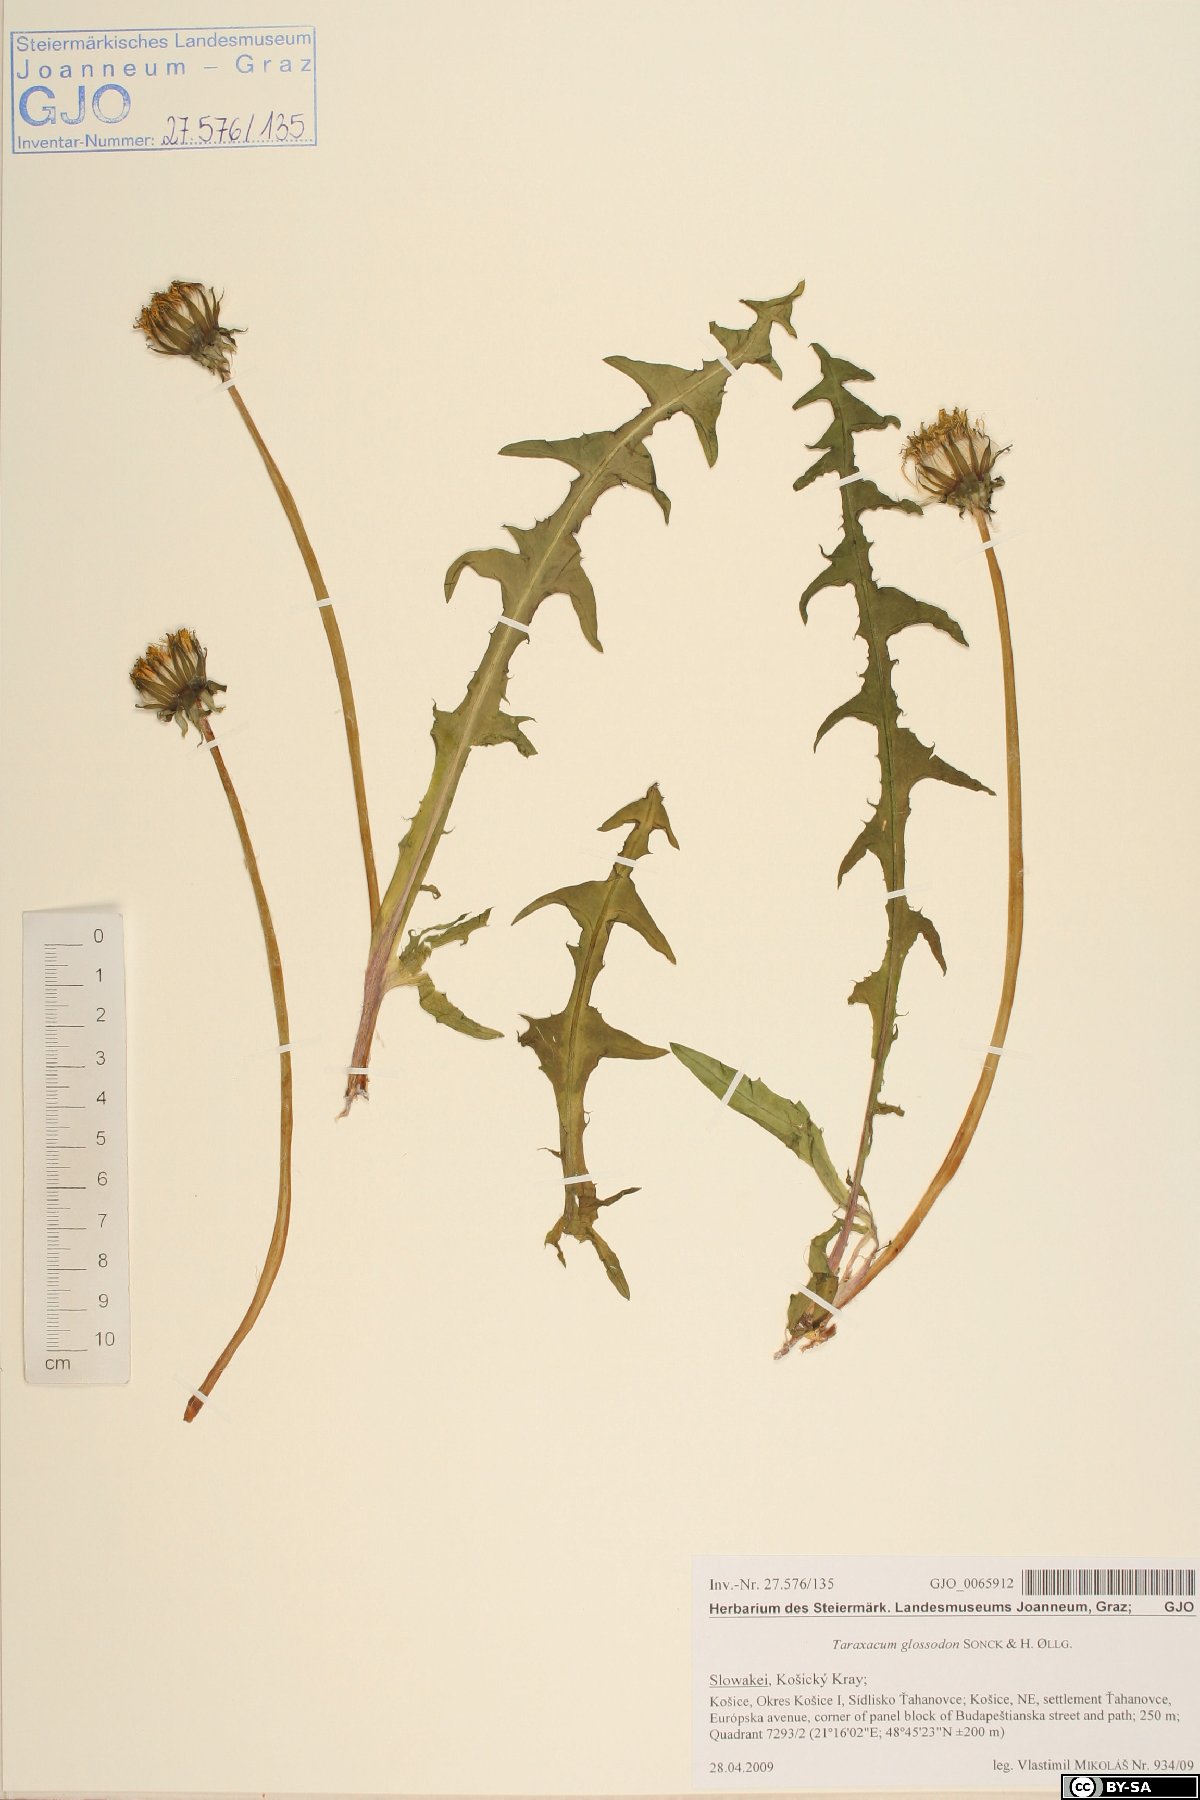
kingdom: Plantae
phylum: Tracheophyta
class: Magnoliopsida
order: Asterales
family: Asteraceae
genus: Taraxacum
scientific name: Taraxacum glossodon
